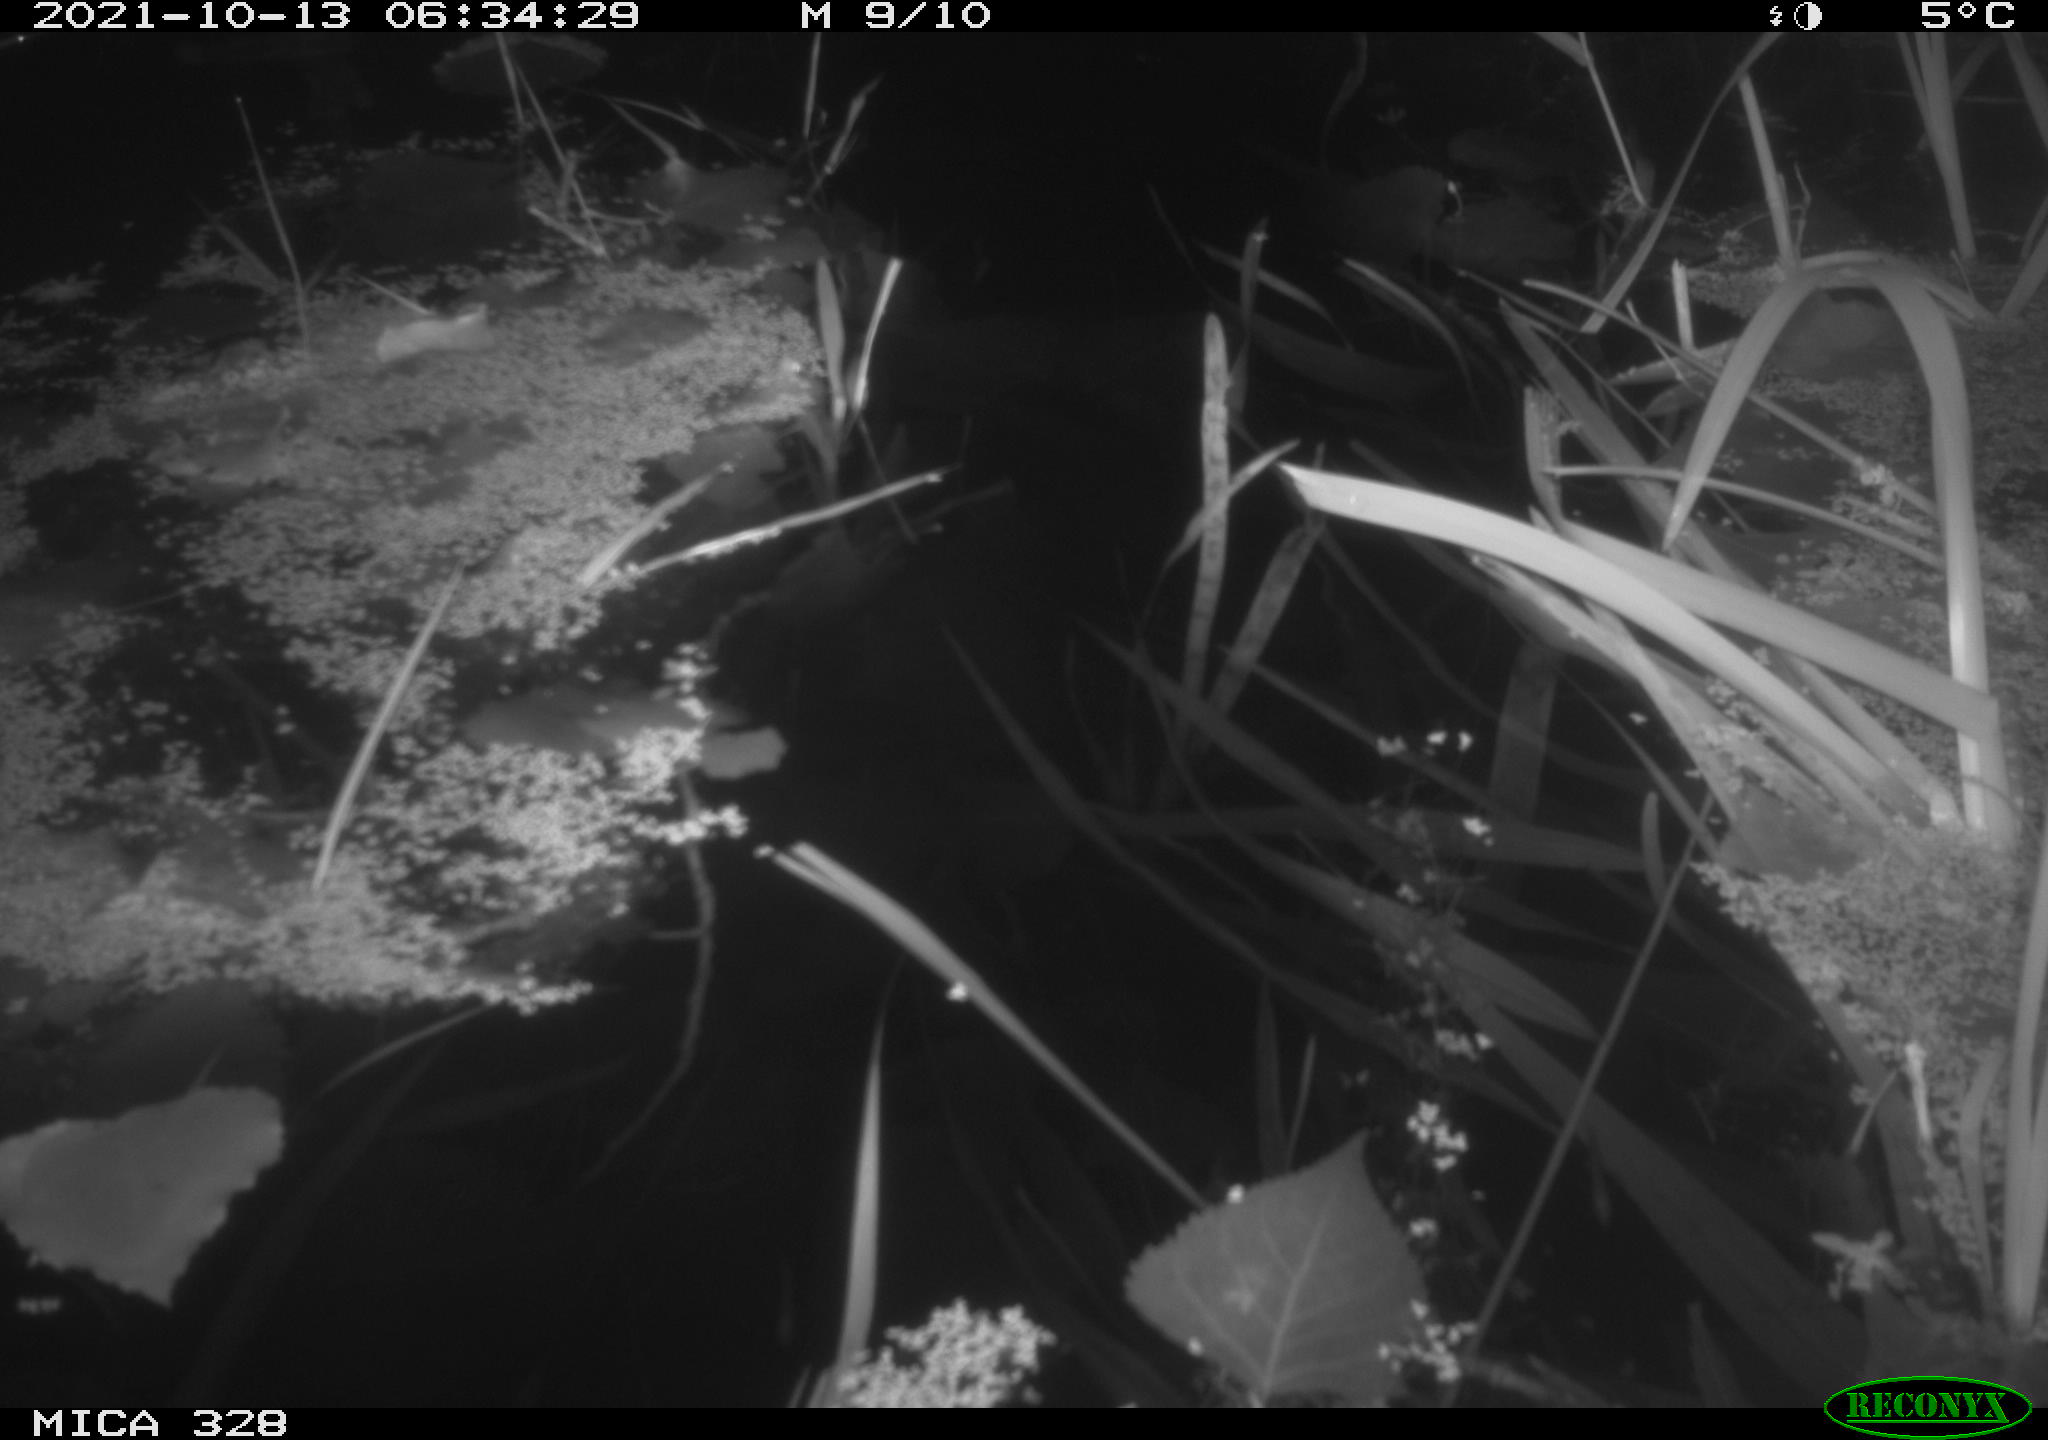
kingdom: Animalia
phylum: Chordata
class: Mammalia
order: Rodentia
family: Cricetidae
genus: Ondatra
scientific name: Ondatra zibethicus
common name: Muskrat
